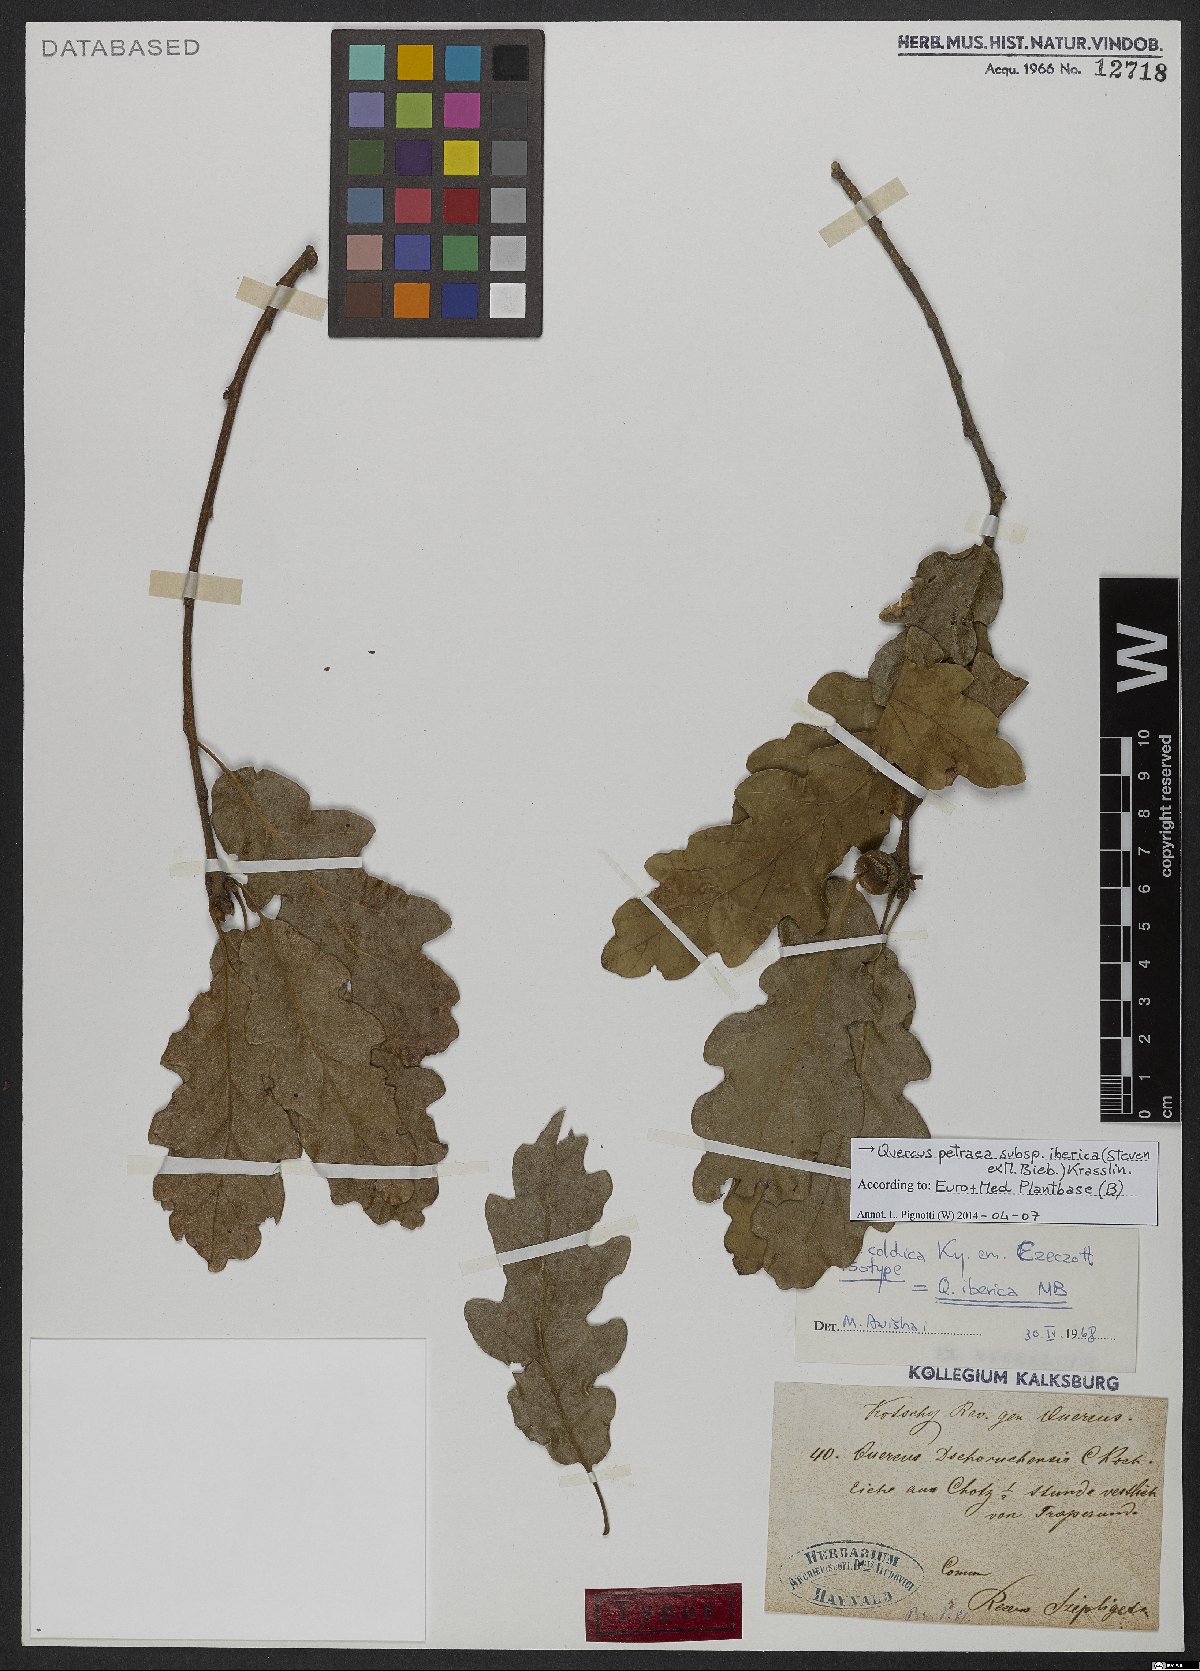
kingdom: Plantae
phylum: Tracheophyta
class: Magnoliopsida
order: Fagales
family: Fagaceae
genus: Quercus
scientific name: Quercus petraea
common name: Sessile oak
